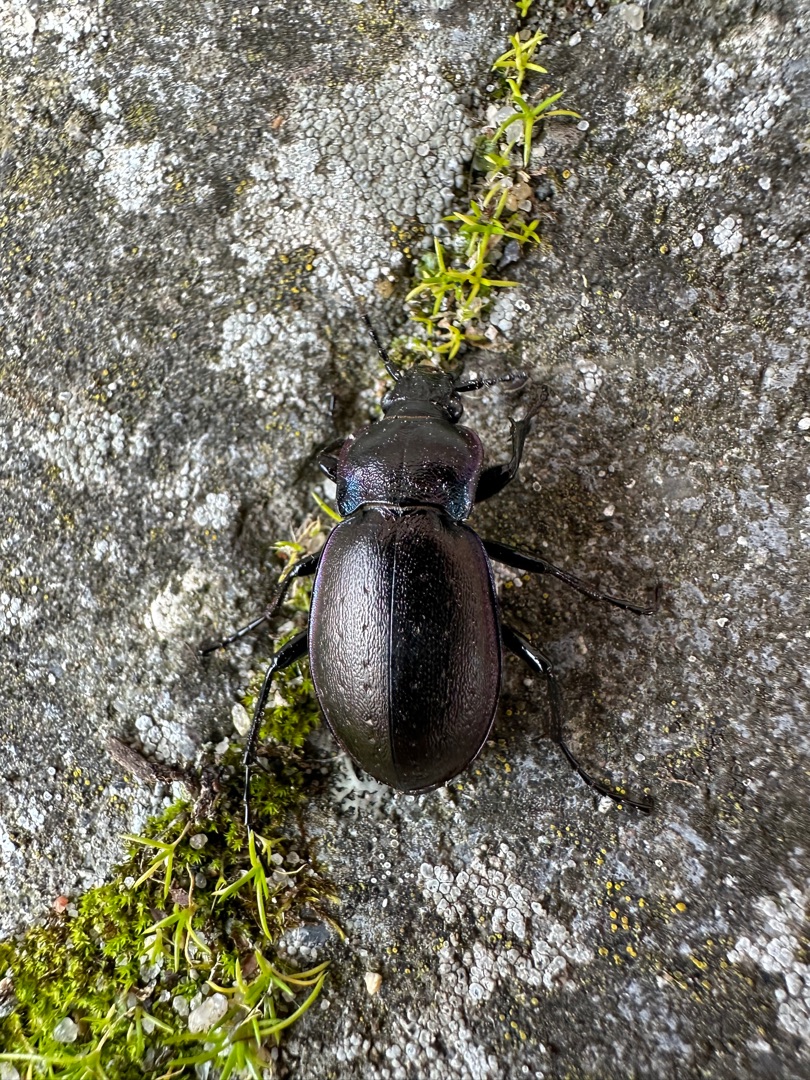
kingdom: Animalia
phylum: Arthropoda
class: Insecta
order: Coleoptera
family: Carabidae
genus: Carabus
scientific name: Carabus nemoralis
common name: Kratløber
